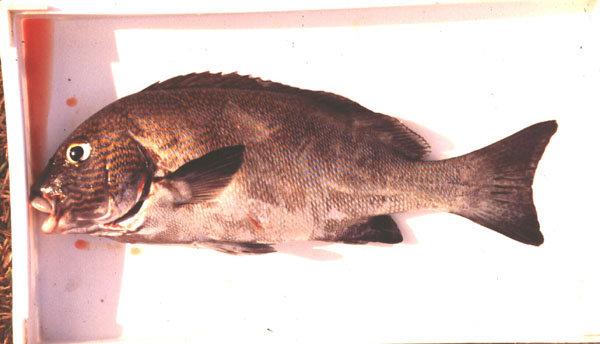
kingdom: Animalia
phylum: Chordata
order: Perciformes
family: Haemulidae
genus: Plectorhinchus
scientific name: Plectorhinchus flavomaculatus
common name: Netted sweetlips
